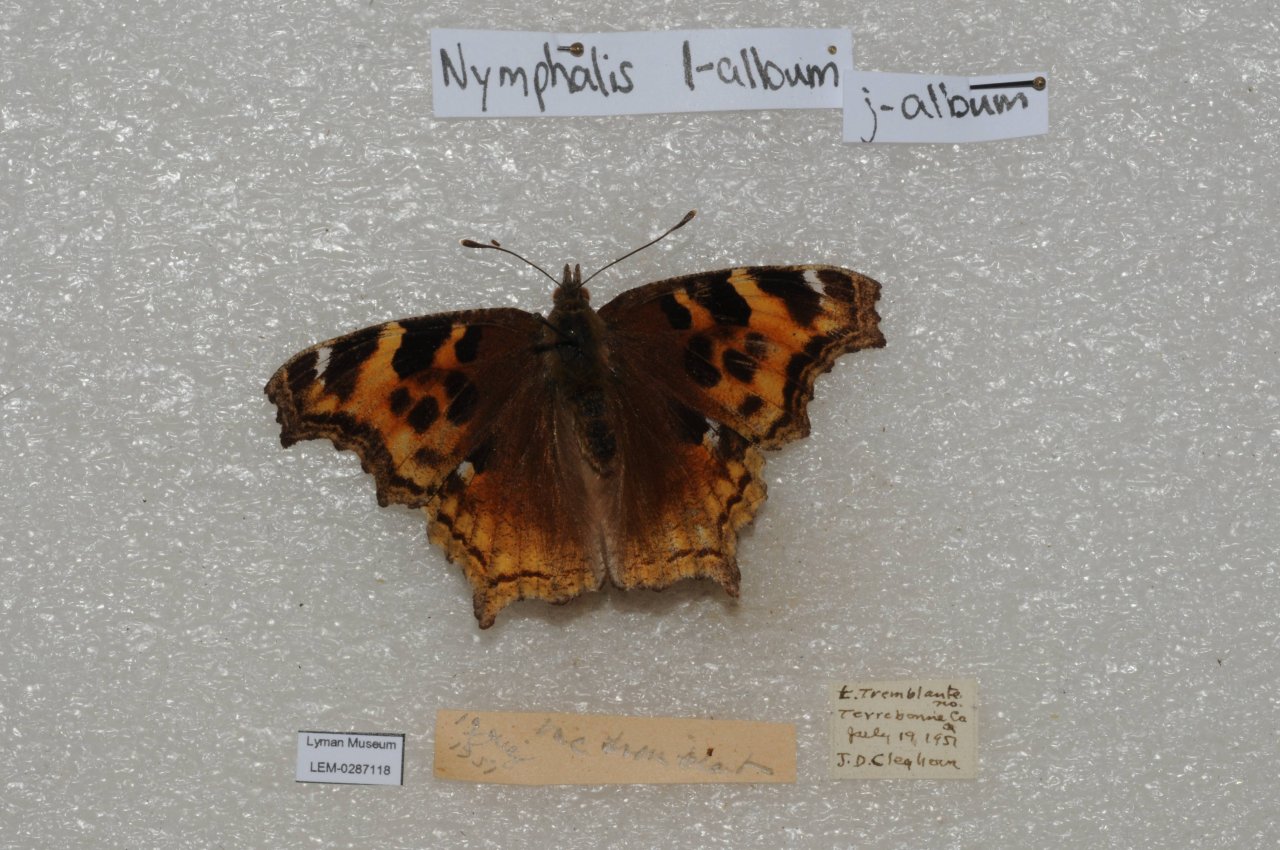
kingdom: Animalia
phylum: Arthropoda
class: Insecta
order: Lepidoptera
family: Nymphalidae
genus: Polygonia
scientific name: Polygonia vaualbum
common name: Compton Tortoiseshell
